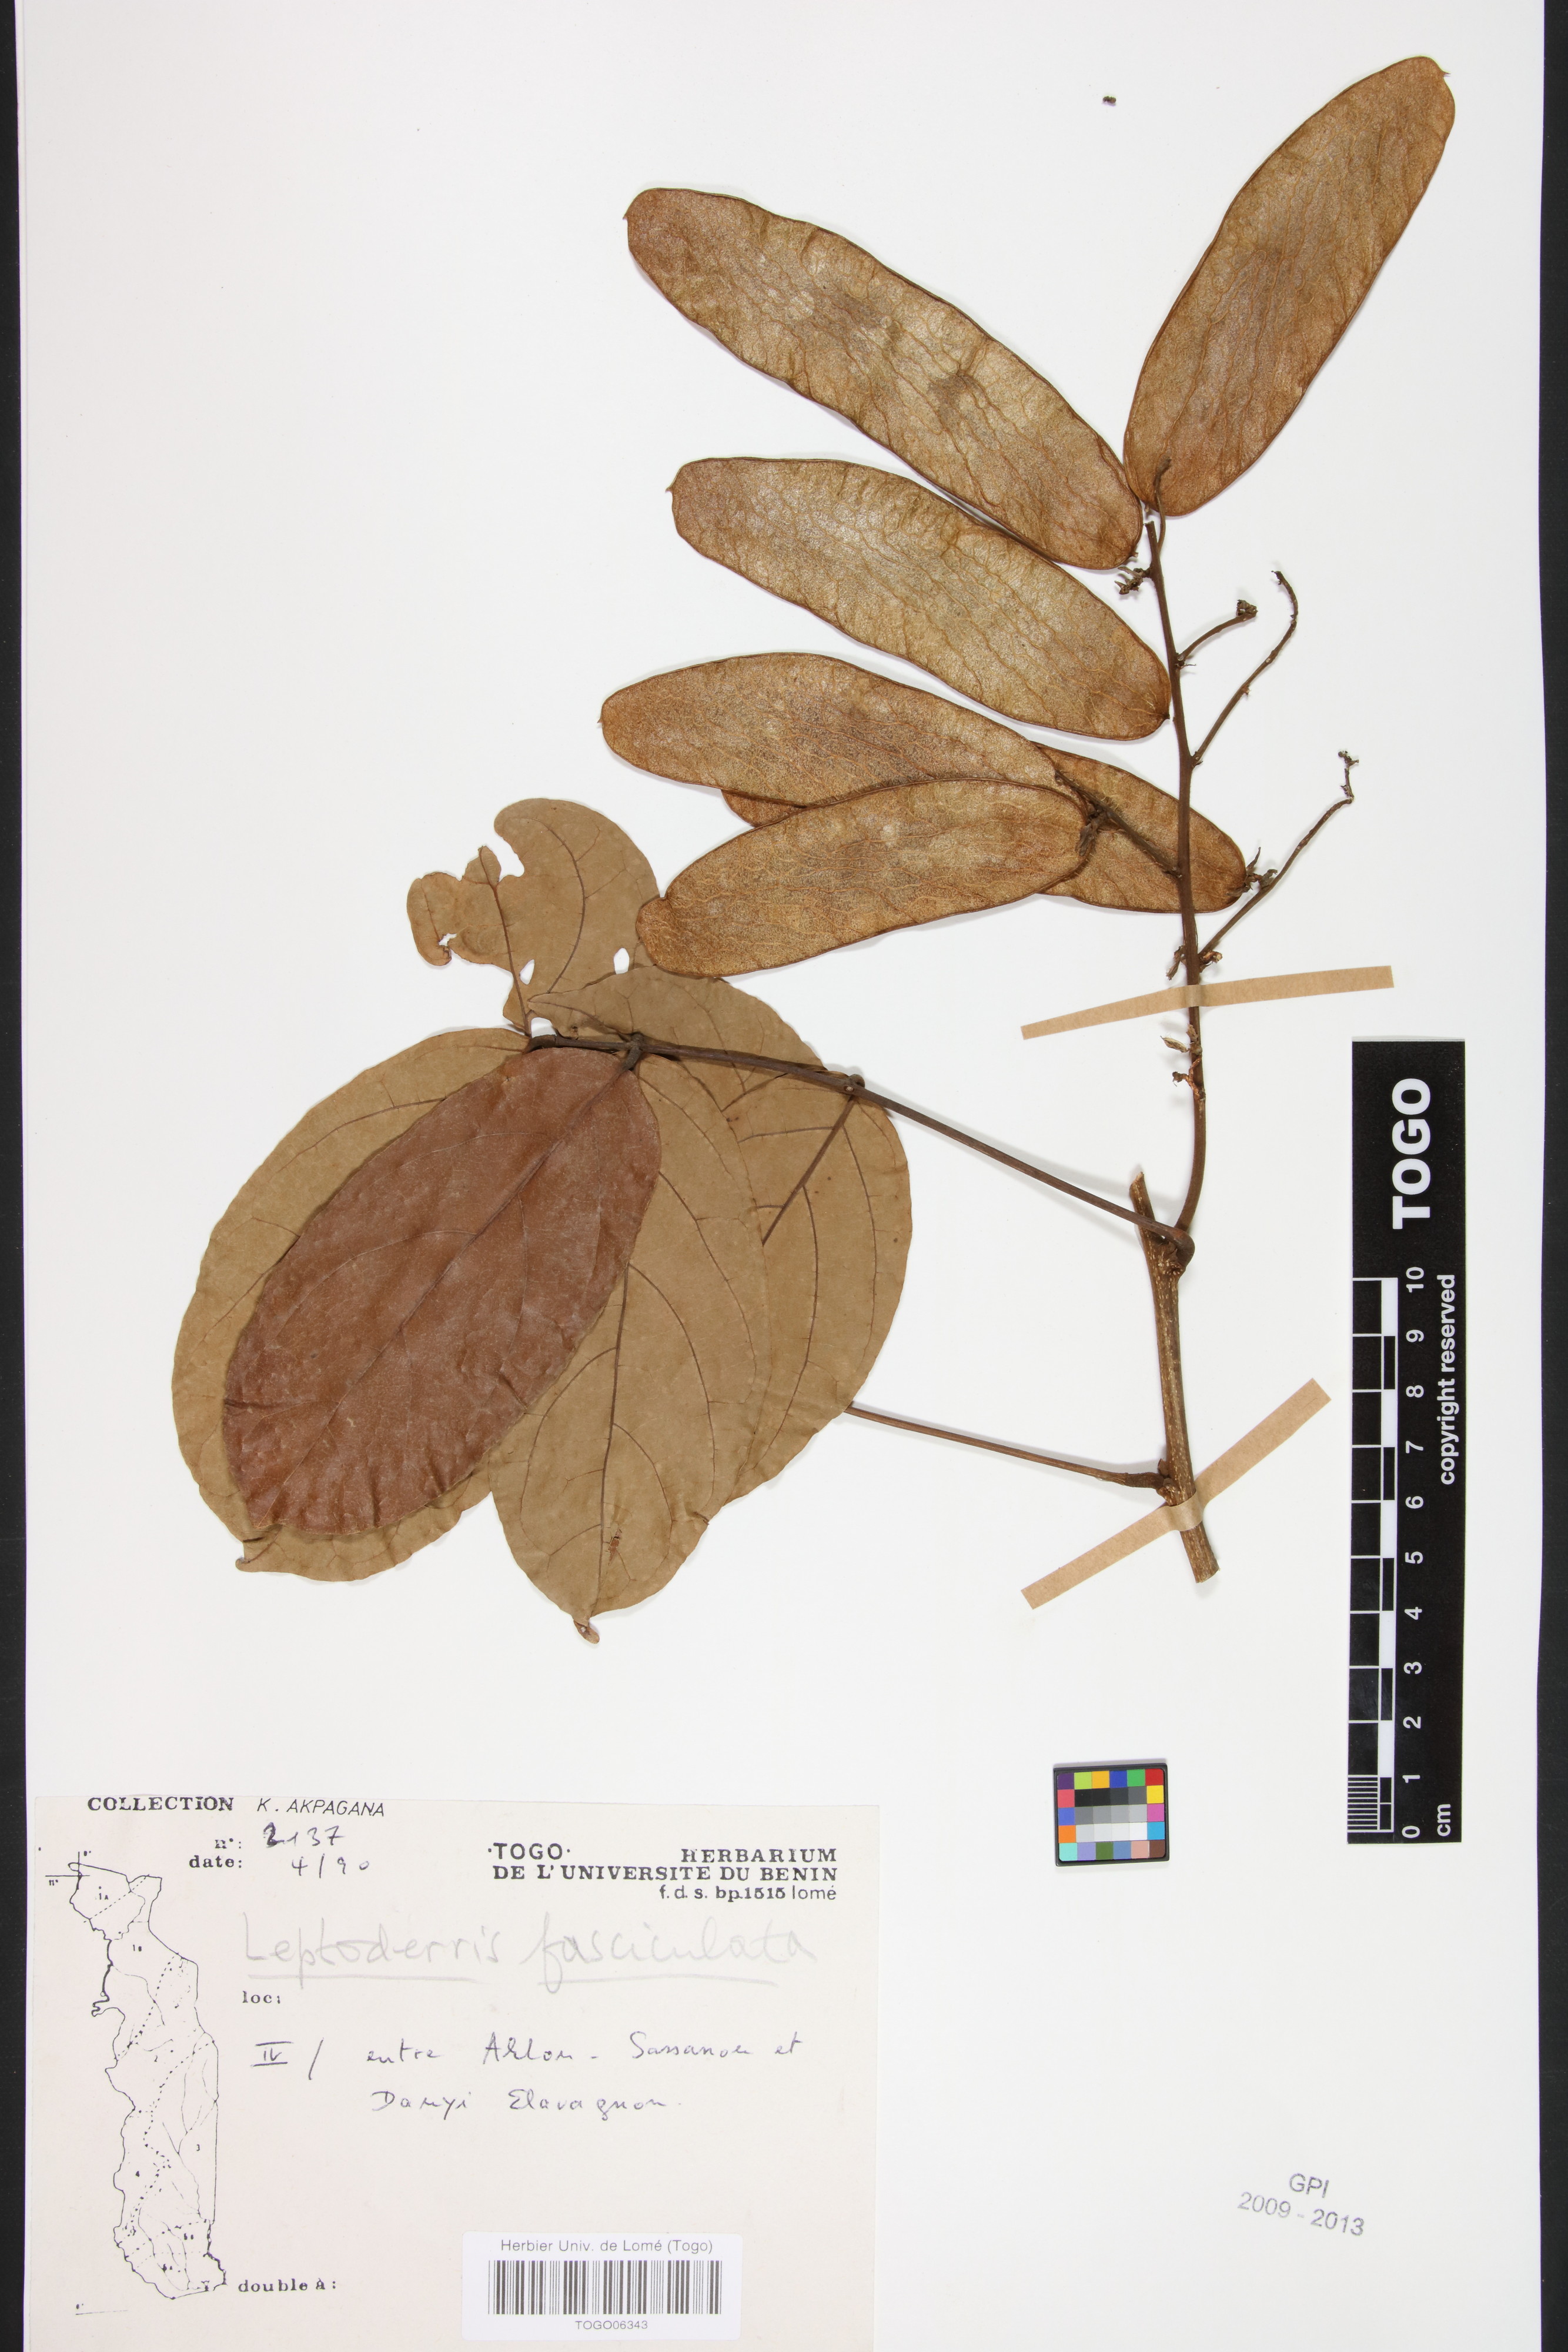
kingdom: Plantae
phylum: Tracheophyta
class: Magnoliopsida
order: Fabales
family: Fabaceae
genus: Leptoderris
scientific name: Leptoderris fasciculata
